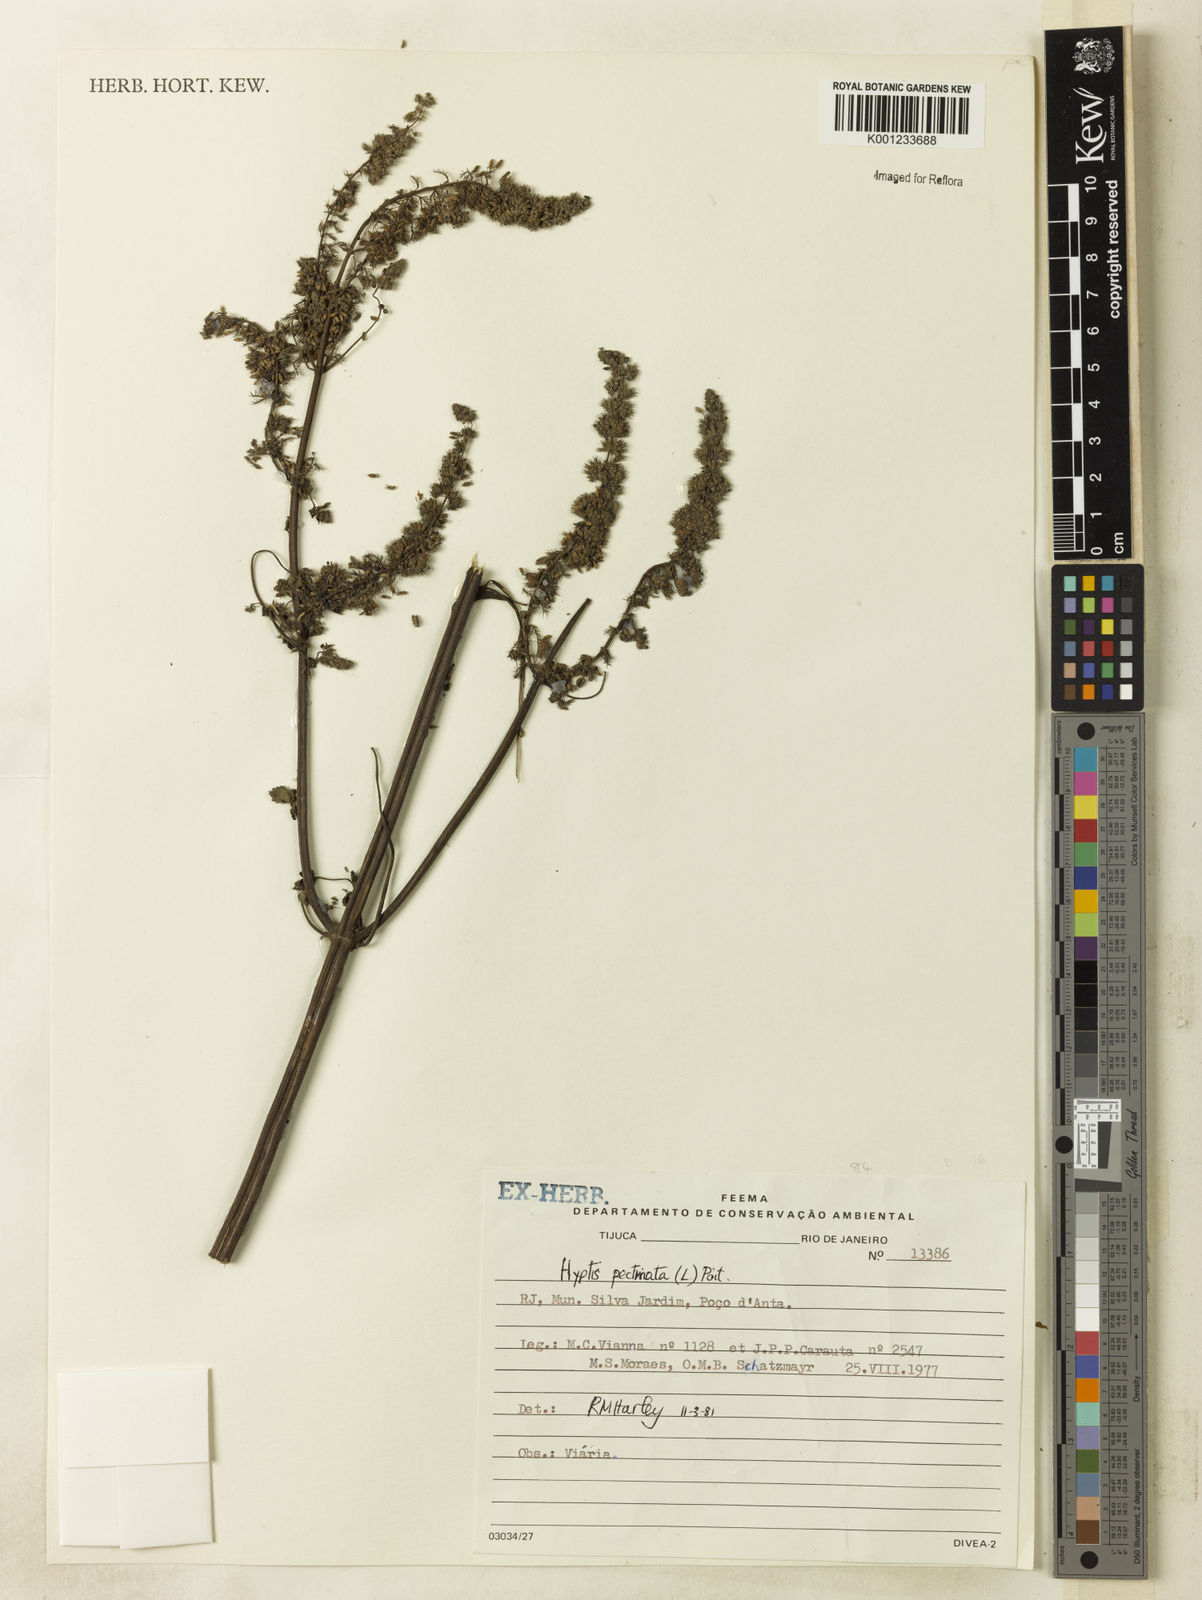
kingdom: Plantae
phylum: Tracheophyta
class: Magnoliopsida
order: Lamiales
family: Lamiaceae
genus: Mesosphaerum
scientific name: Mesosphaerum pectinatum
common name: Comb hyptis
